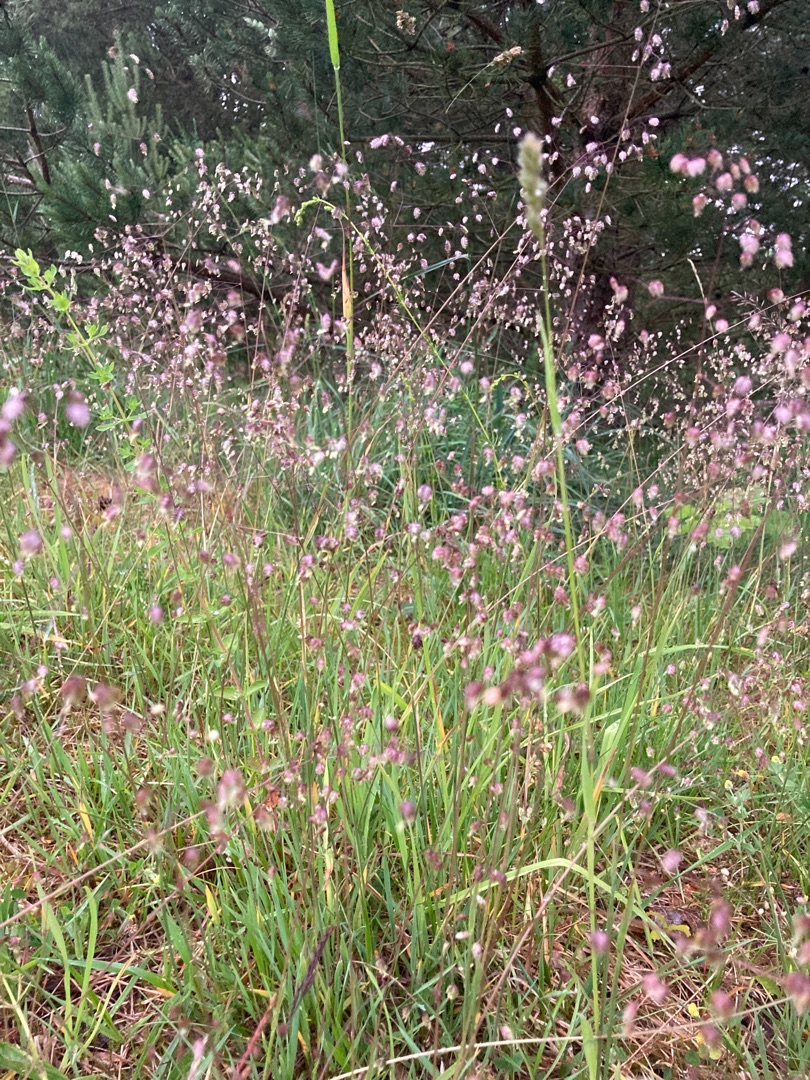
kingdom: Plantae
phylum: Tracheophyta
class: Liliopsida
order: Poales
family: Poaceae
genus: Briza
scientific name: Briza media
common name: Hjertegræs
